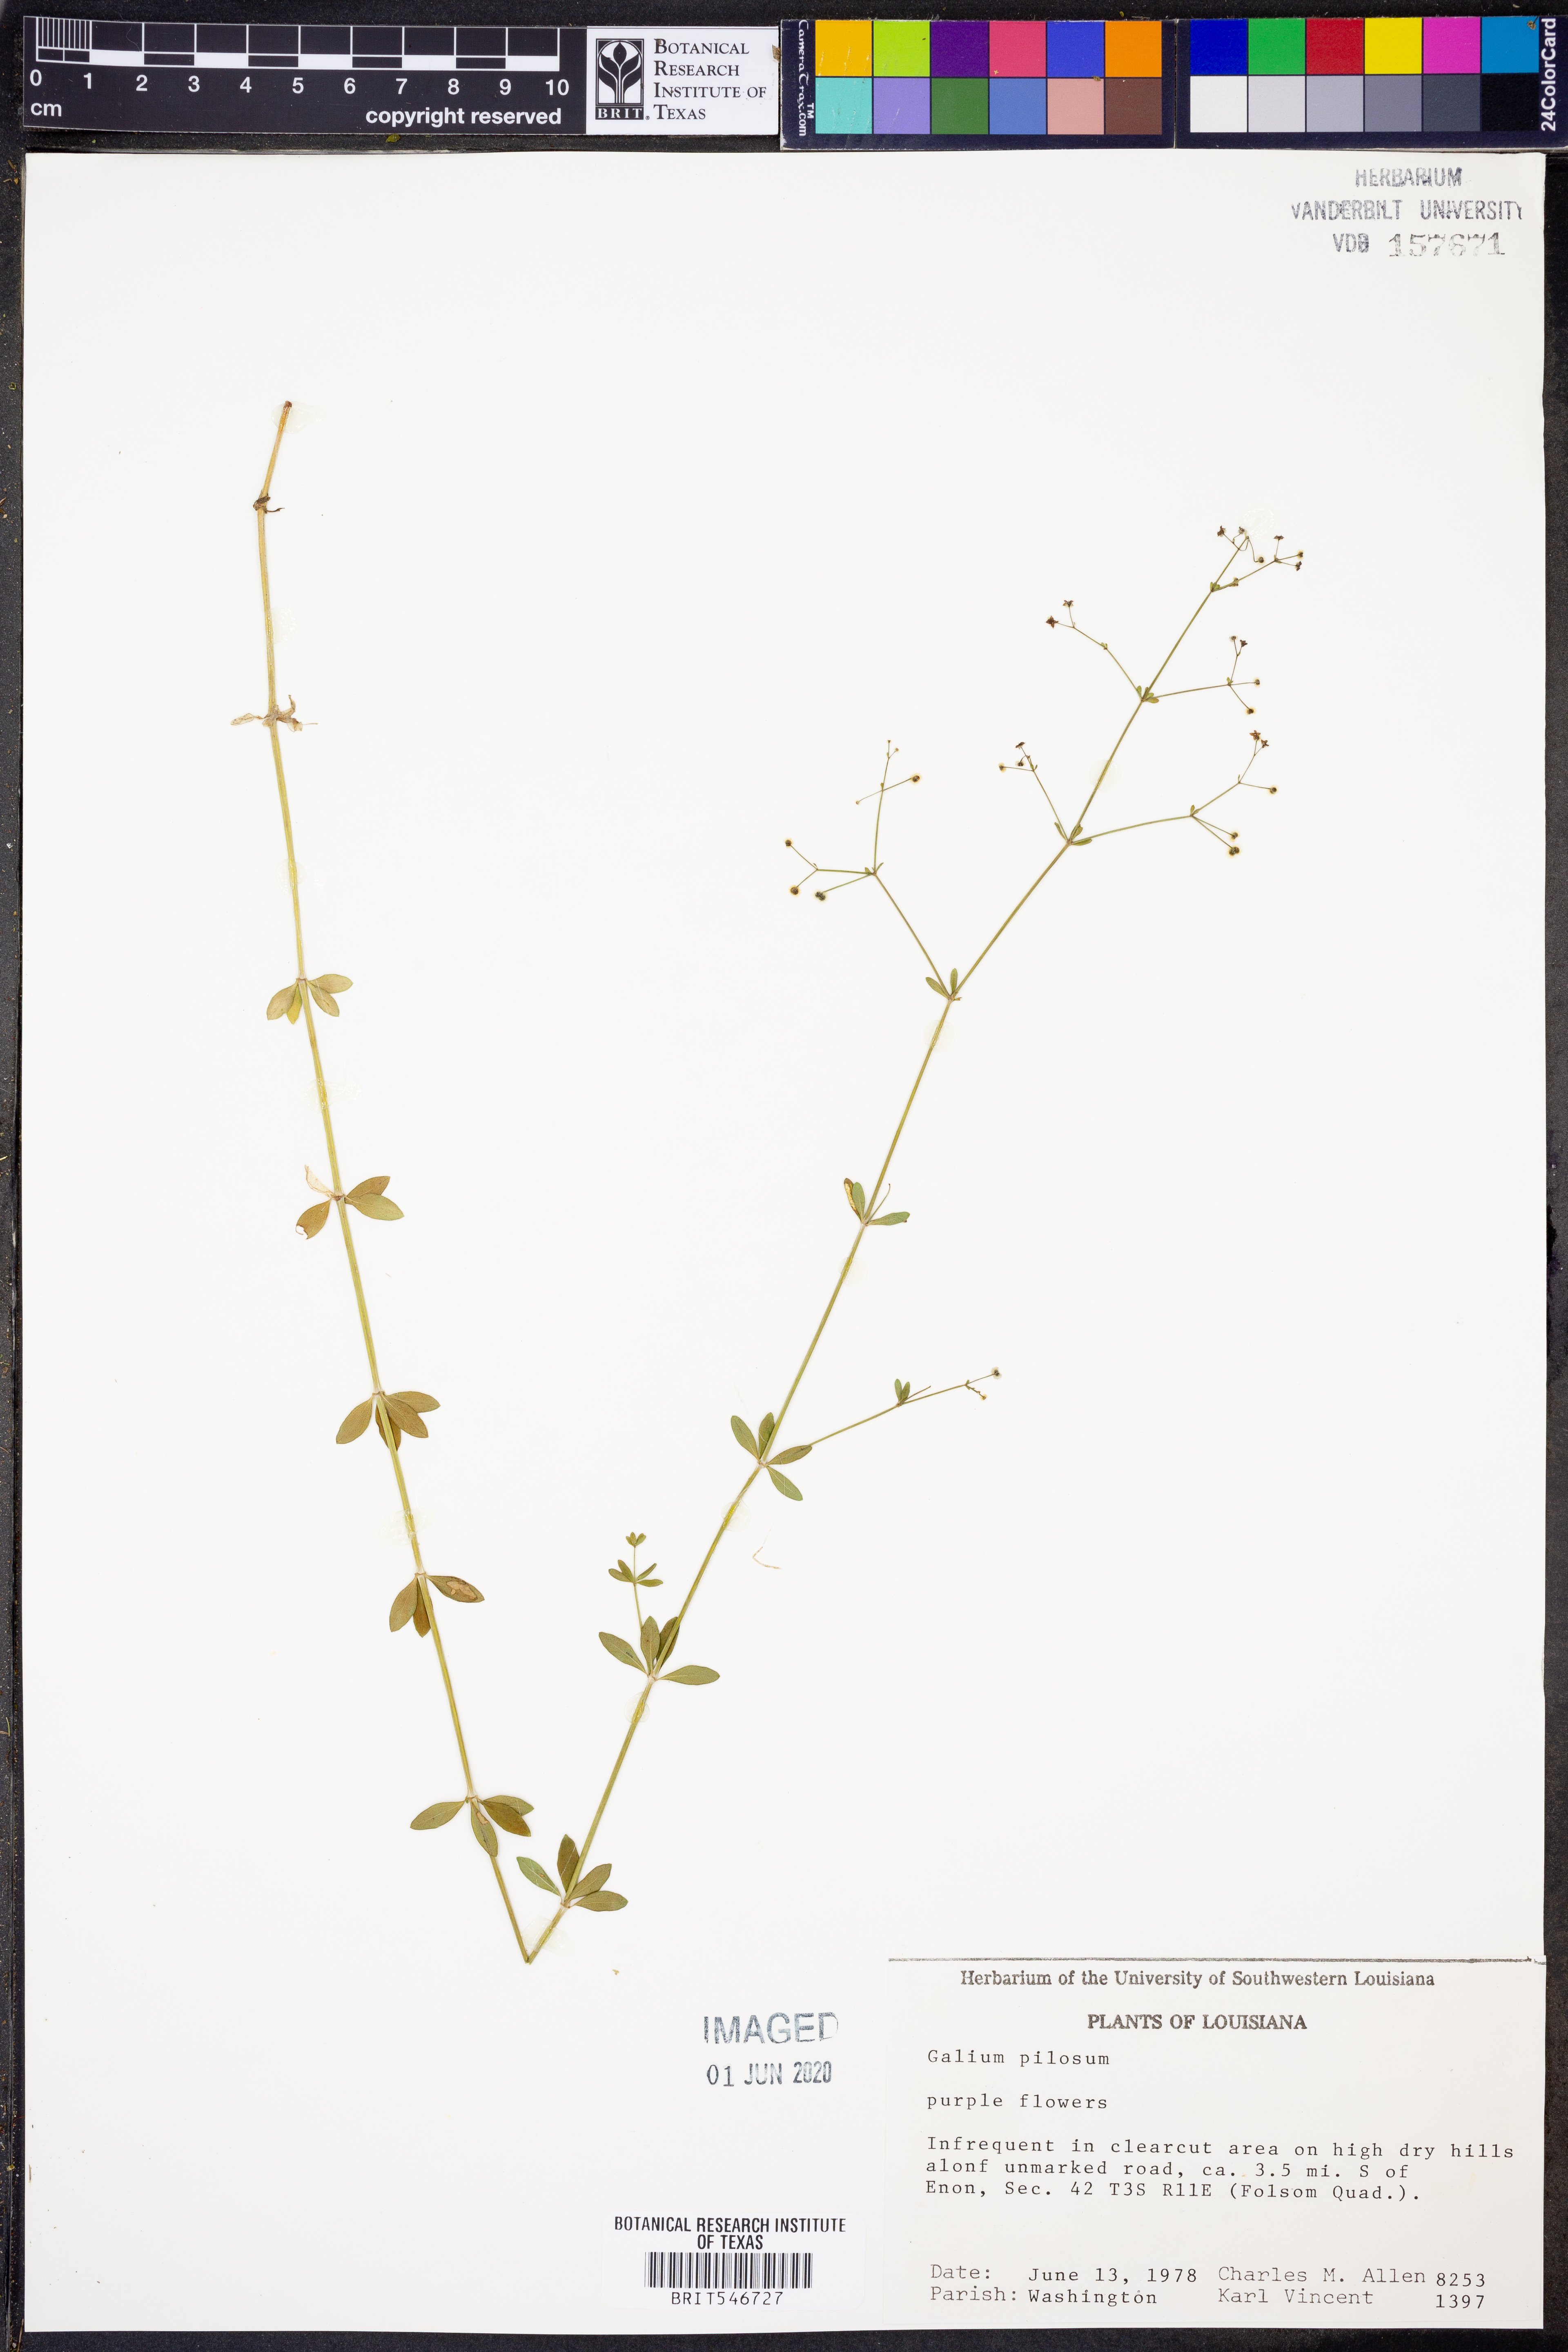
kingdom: Plantae
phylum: Tracheophyta
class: Magnoliopsida
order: Gentianales
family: Rubiaceae
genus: Galium
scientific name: Galium pilosum
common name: Hairy bedstraw
